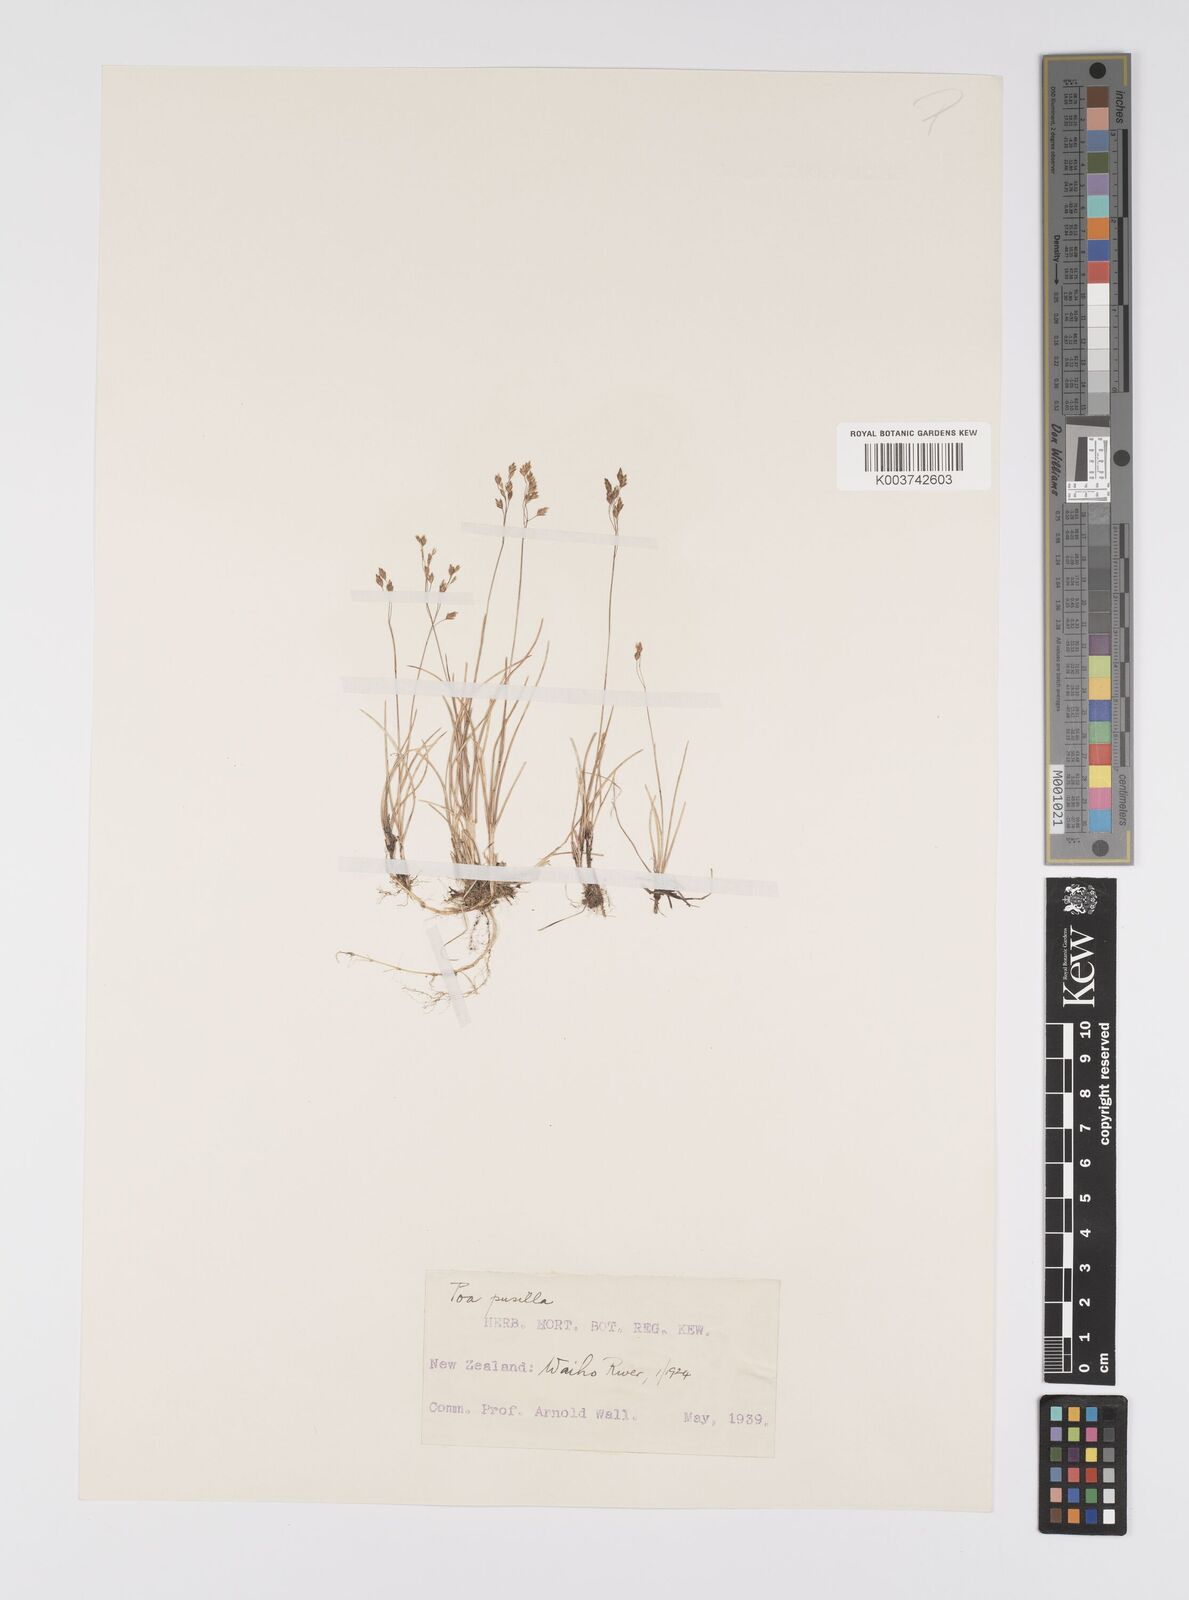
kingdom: Plantae
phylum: Tracheophyta
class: Liliopsida
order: Poales
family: Poaceae
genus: Poa
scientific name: Poa anceps
